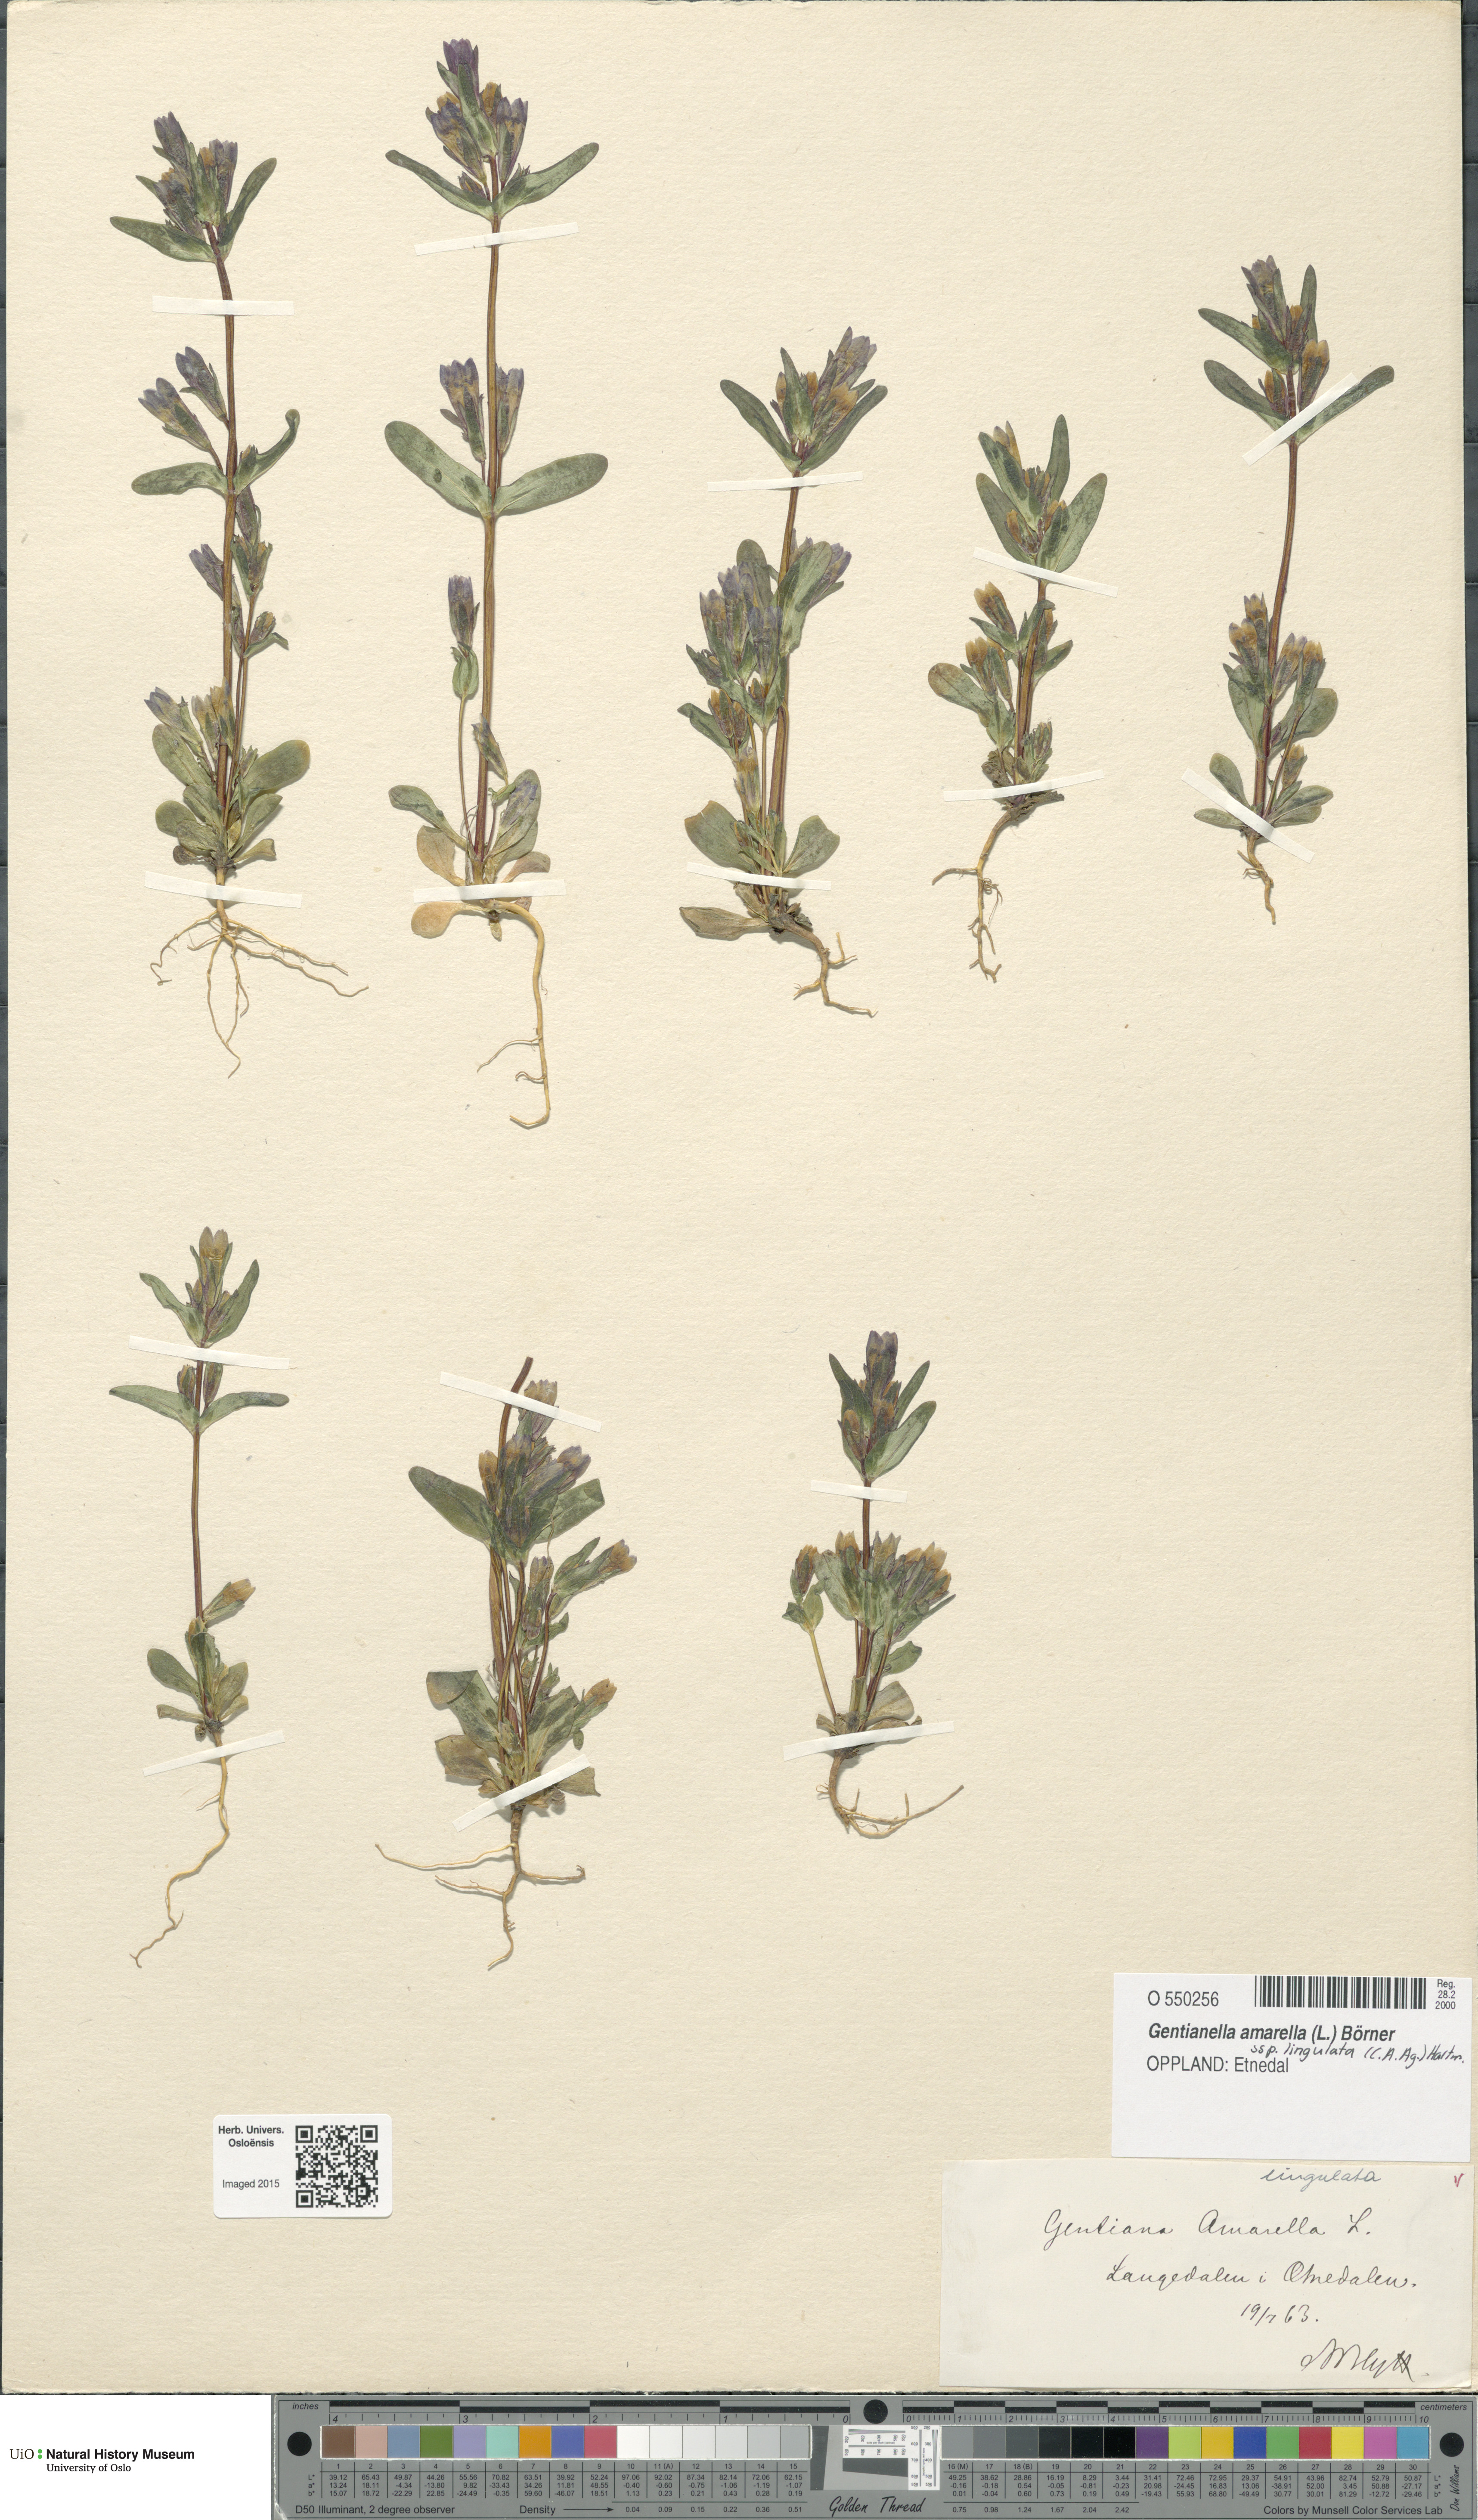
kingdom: Plantae
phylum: Tracheophyta
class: Magnoliopsida
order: Gentianales
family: Gentianaceae
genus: Gentianella
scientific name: Gentianella amarella
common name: Autumn gentian
